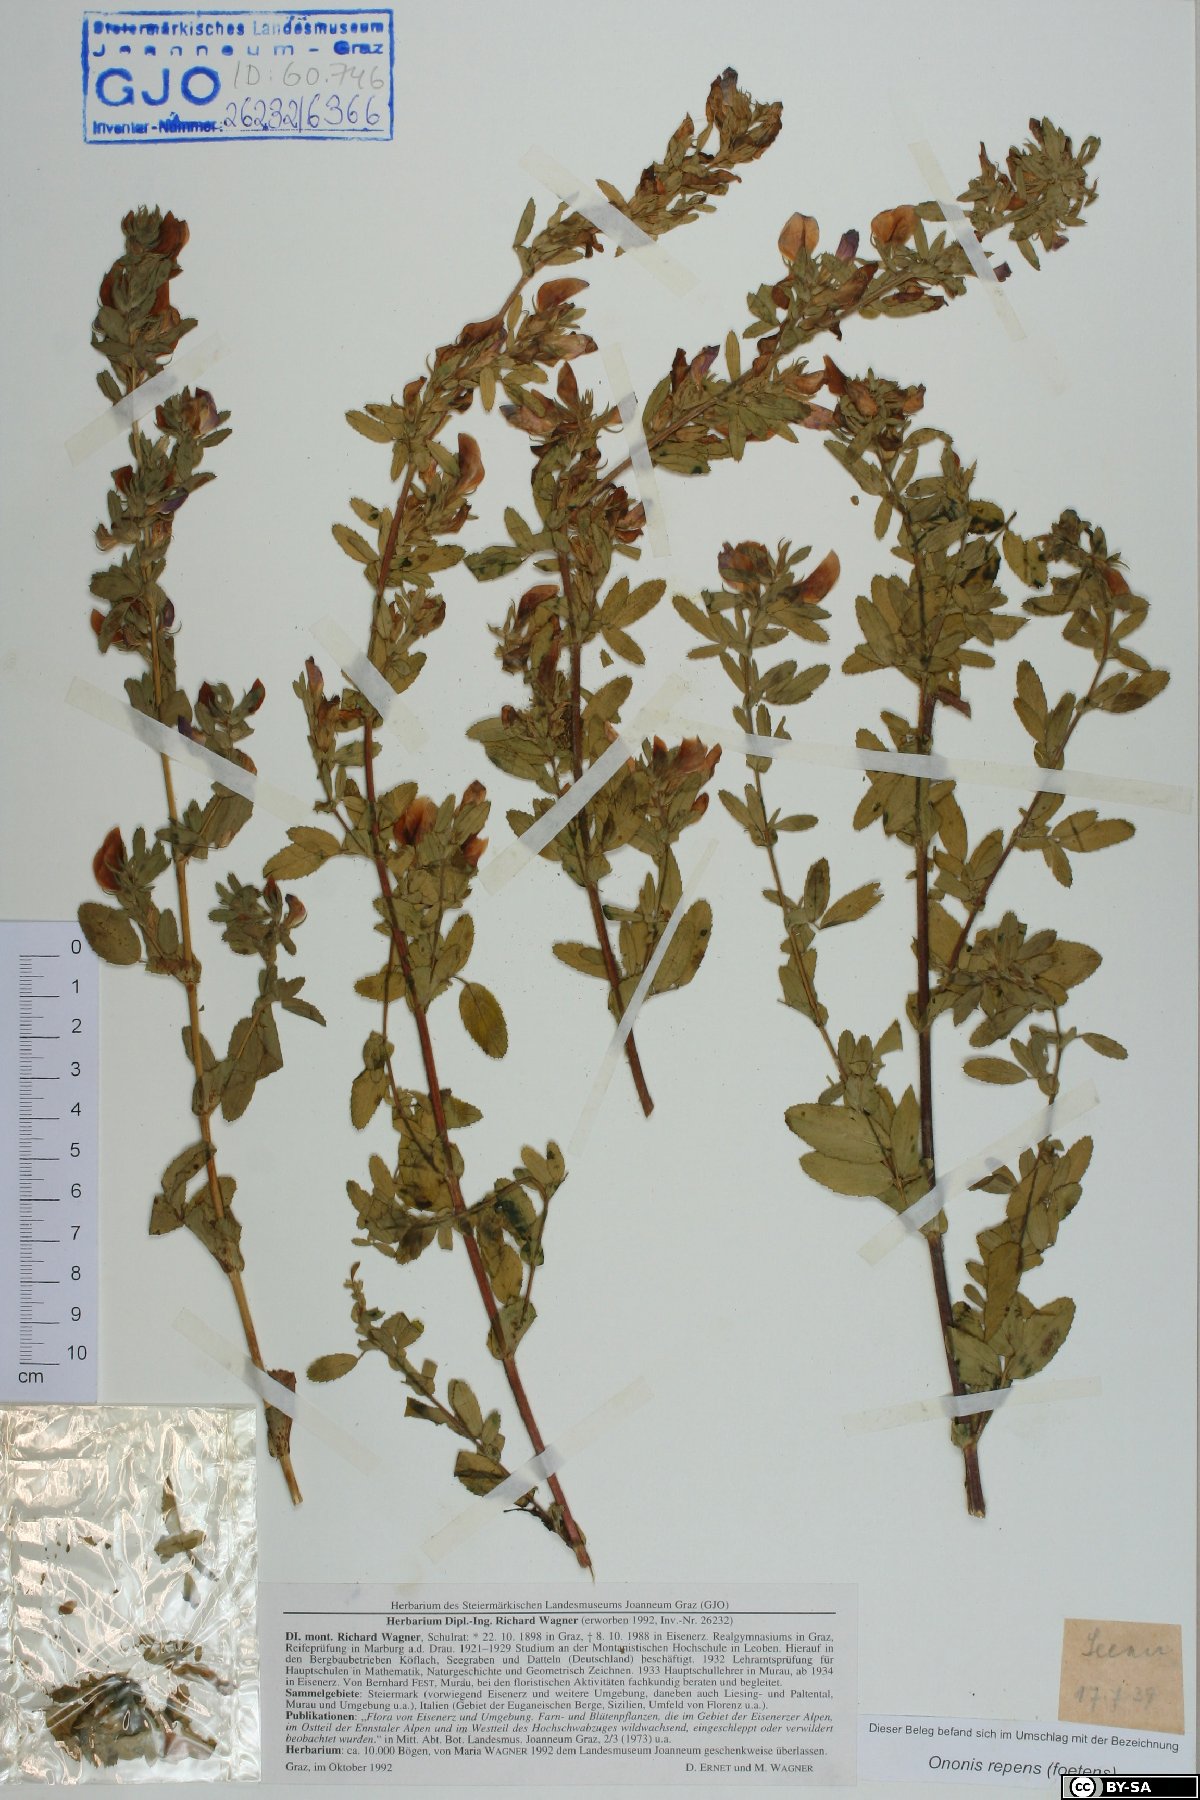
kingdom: Plantae
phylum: Tracheophyta
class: Magnoliopsida
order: Fabales
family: Fabaceae
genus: Ononis
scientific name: Ononis spinosa
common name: Spiny restharrow
